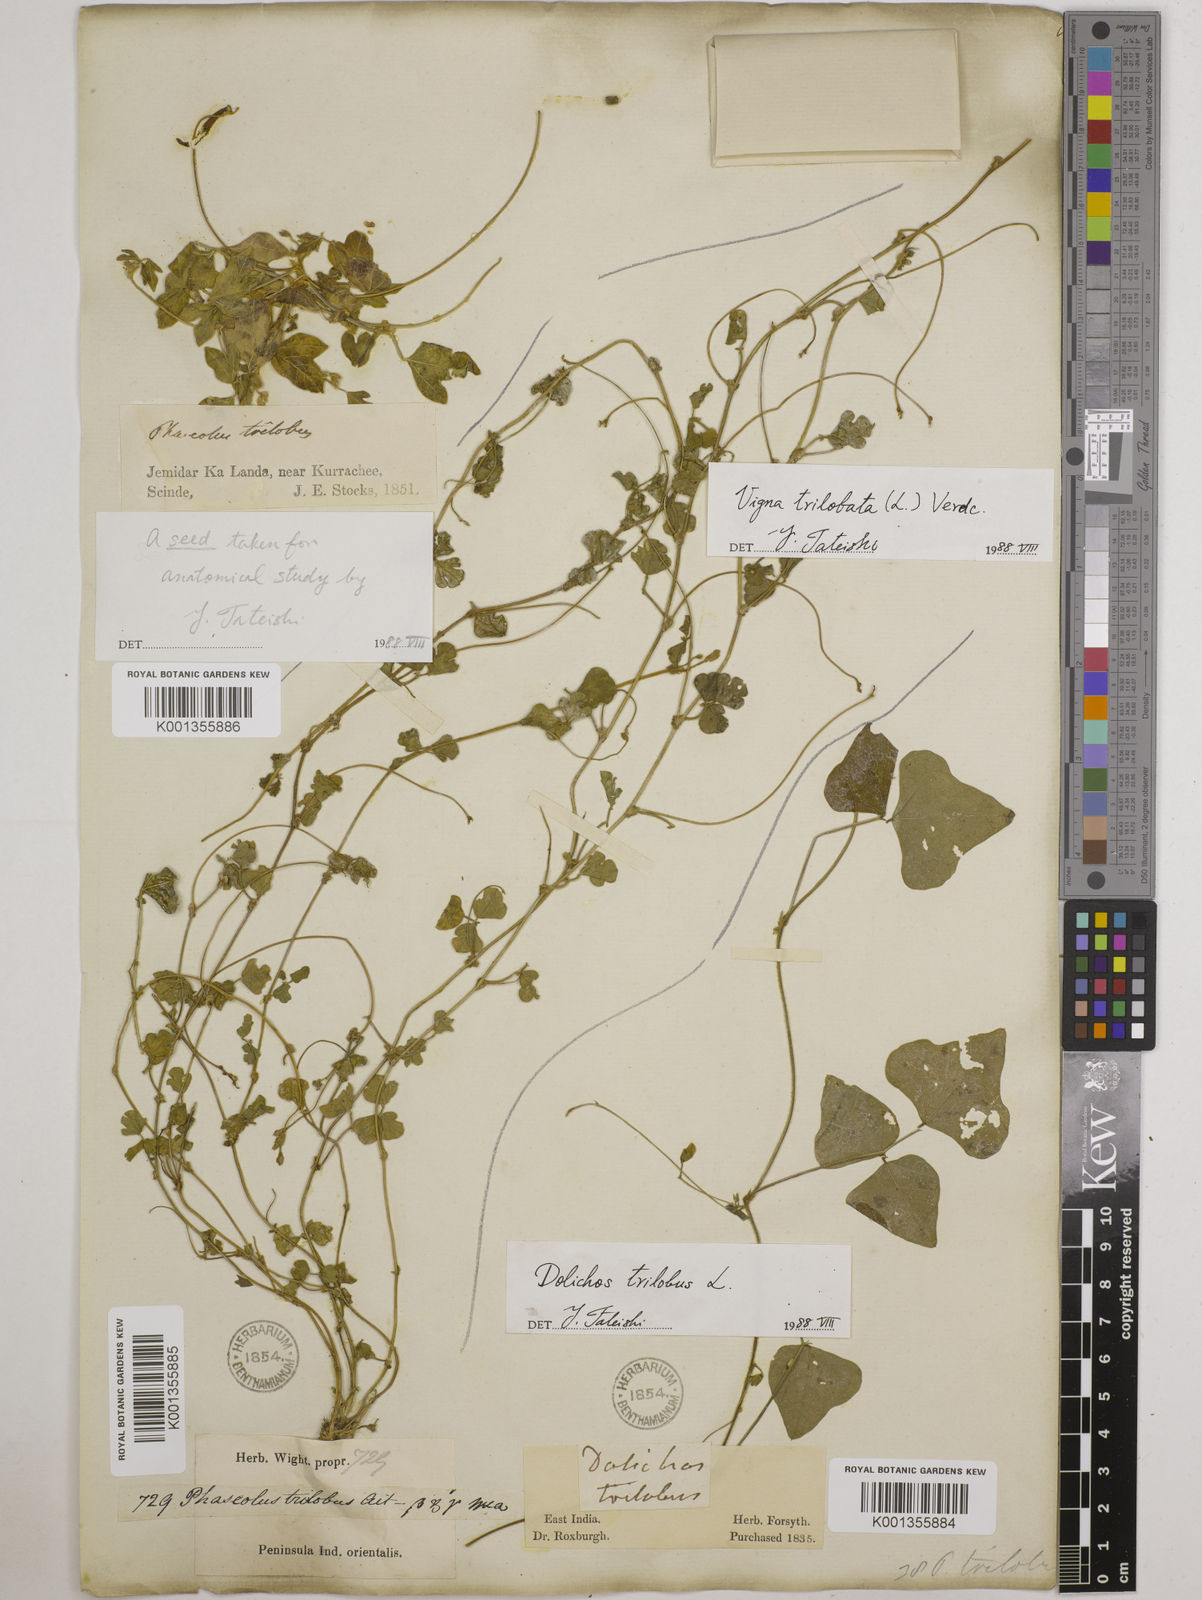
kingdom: Plantae
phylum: Tracheophyta
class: Magnoliopsida
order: Fabales
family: Fabaceae
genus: Vigna
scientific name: Vigna trilobata
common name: Jungli-bean
